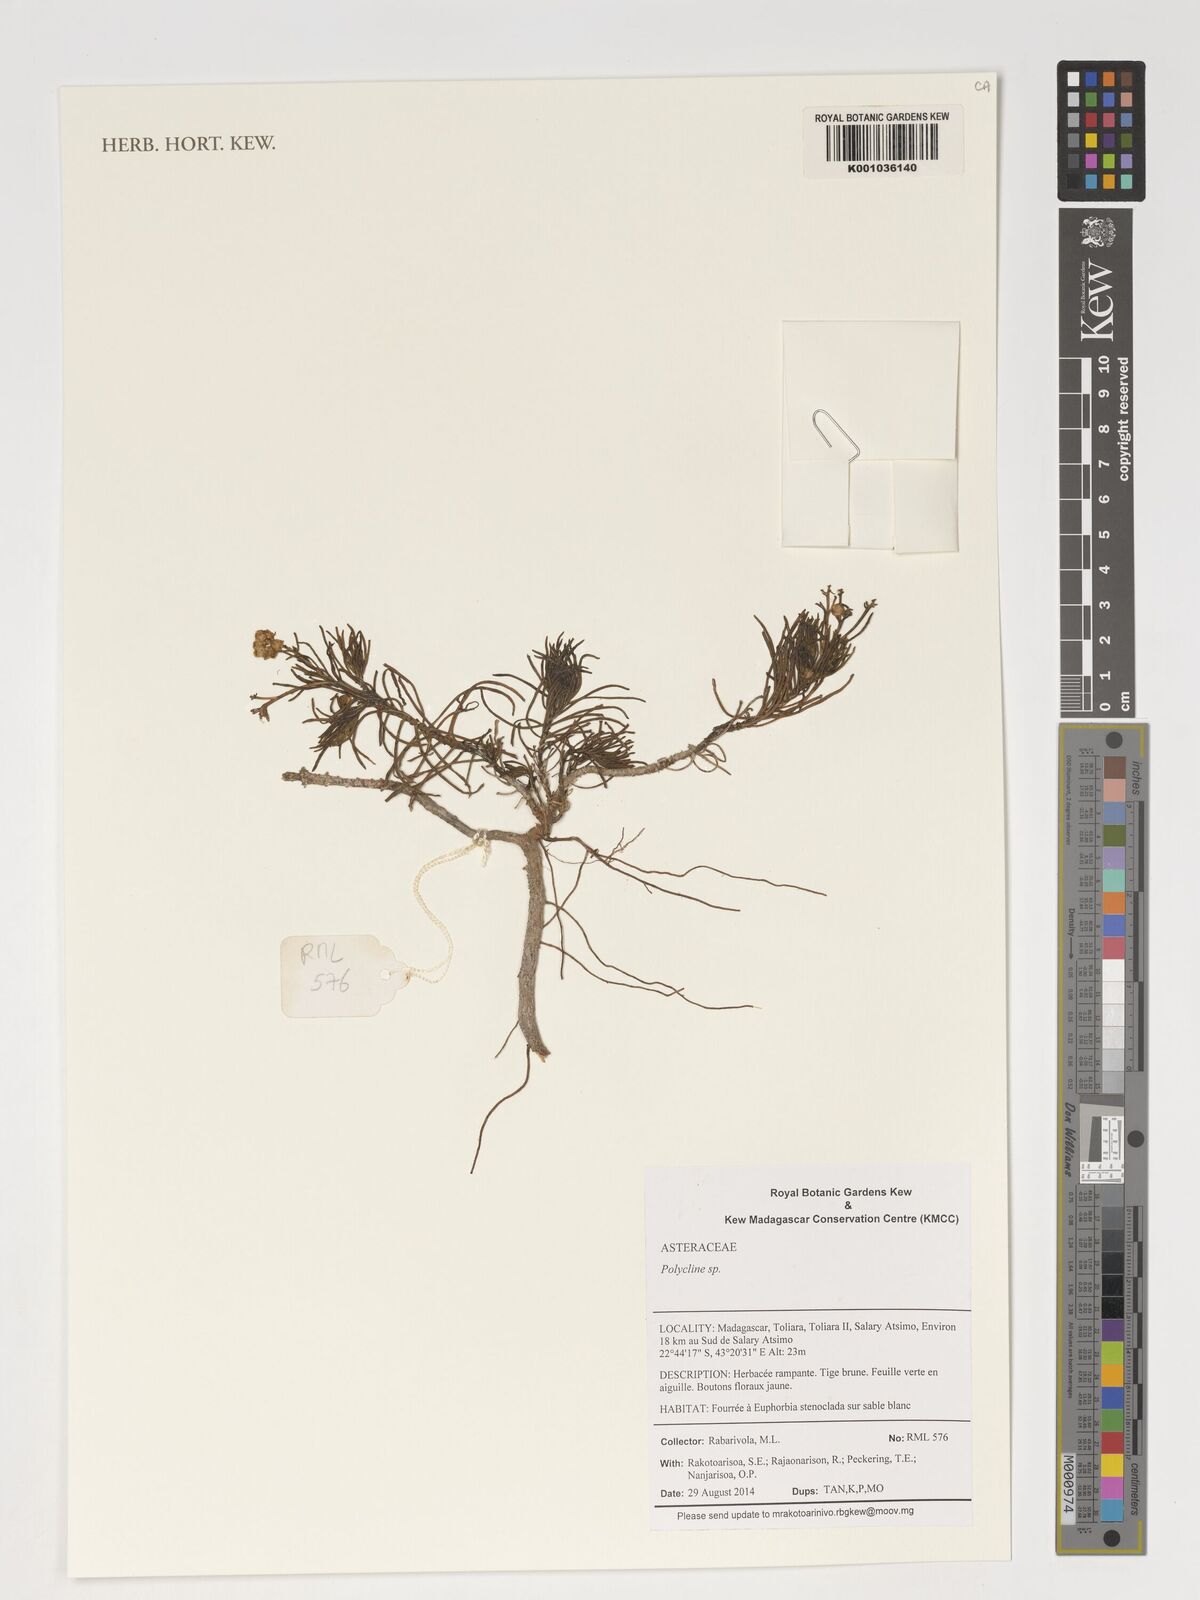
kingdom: Plantae
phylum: Tracheophyta
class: Magnoliopsida
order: Asterales
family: Asteraceae
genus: Athroisma
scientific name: Athroisma
